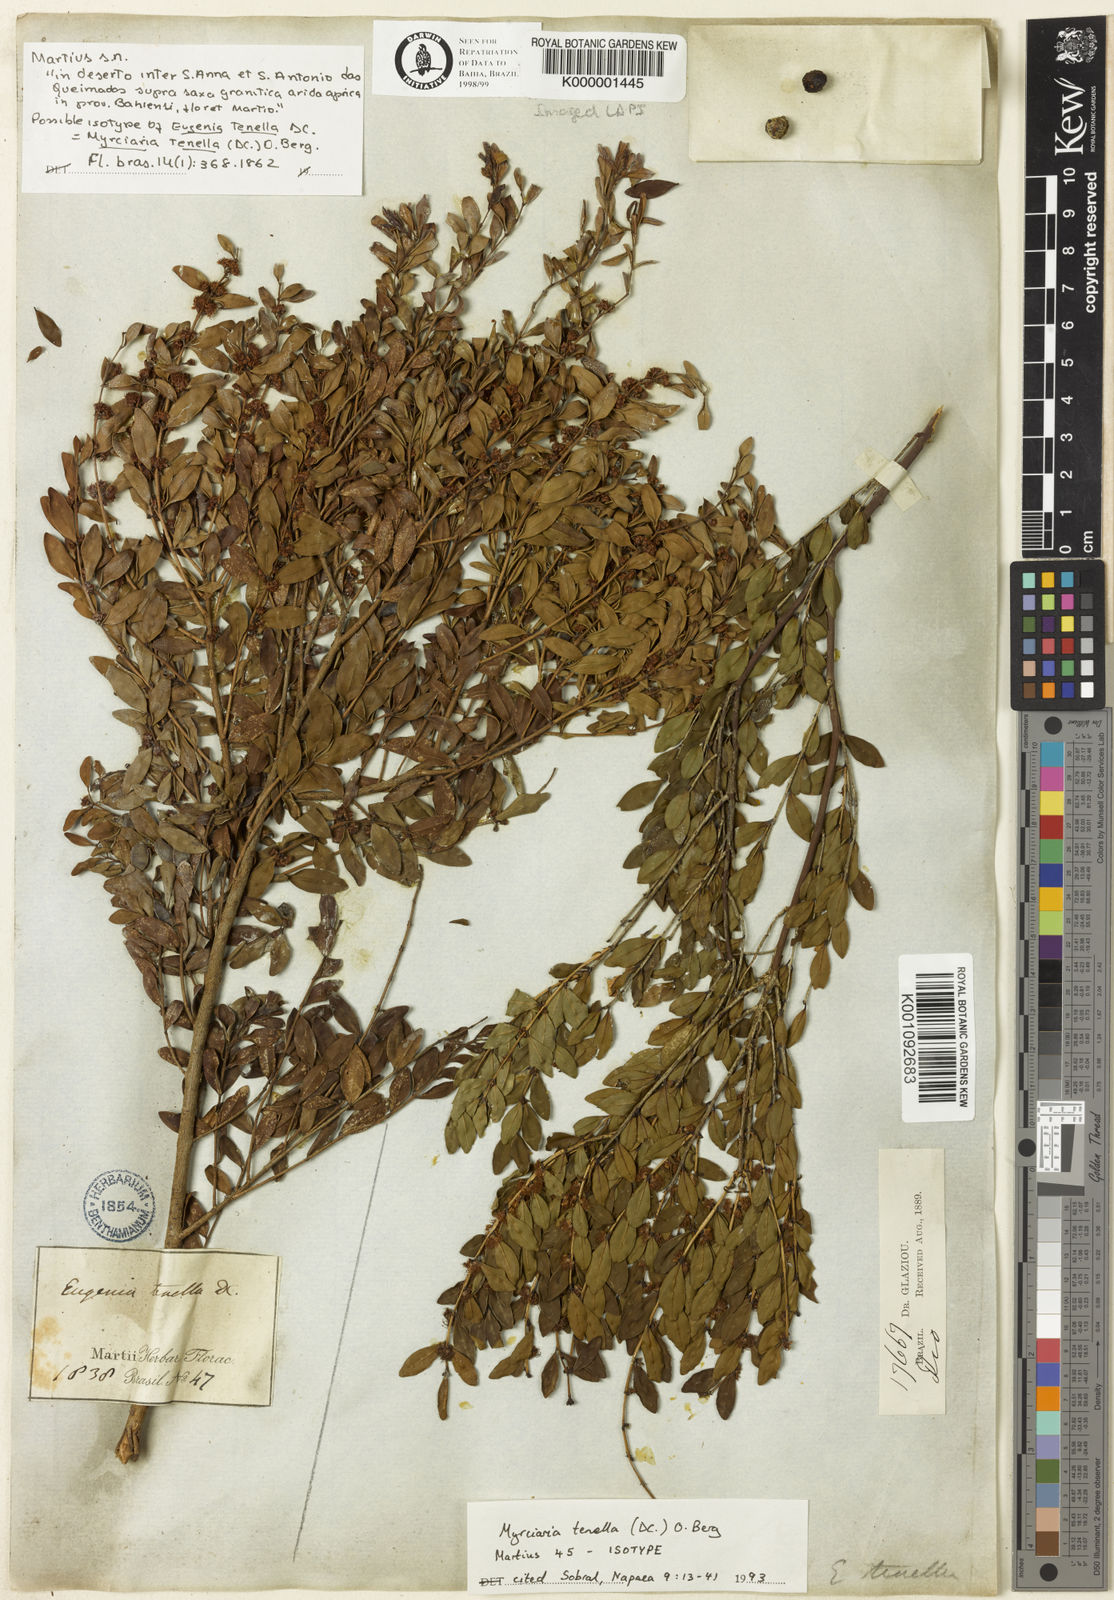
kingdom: Plantae
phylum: Tracheophyta
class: Magnoliopsida
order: Myrtales
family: Myrtaceae
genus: Myrciaria
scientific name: Myrciaria tenella
